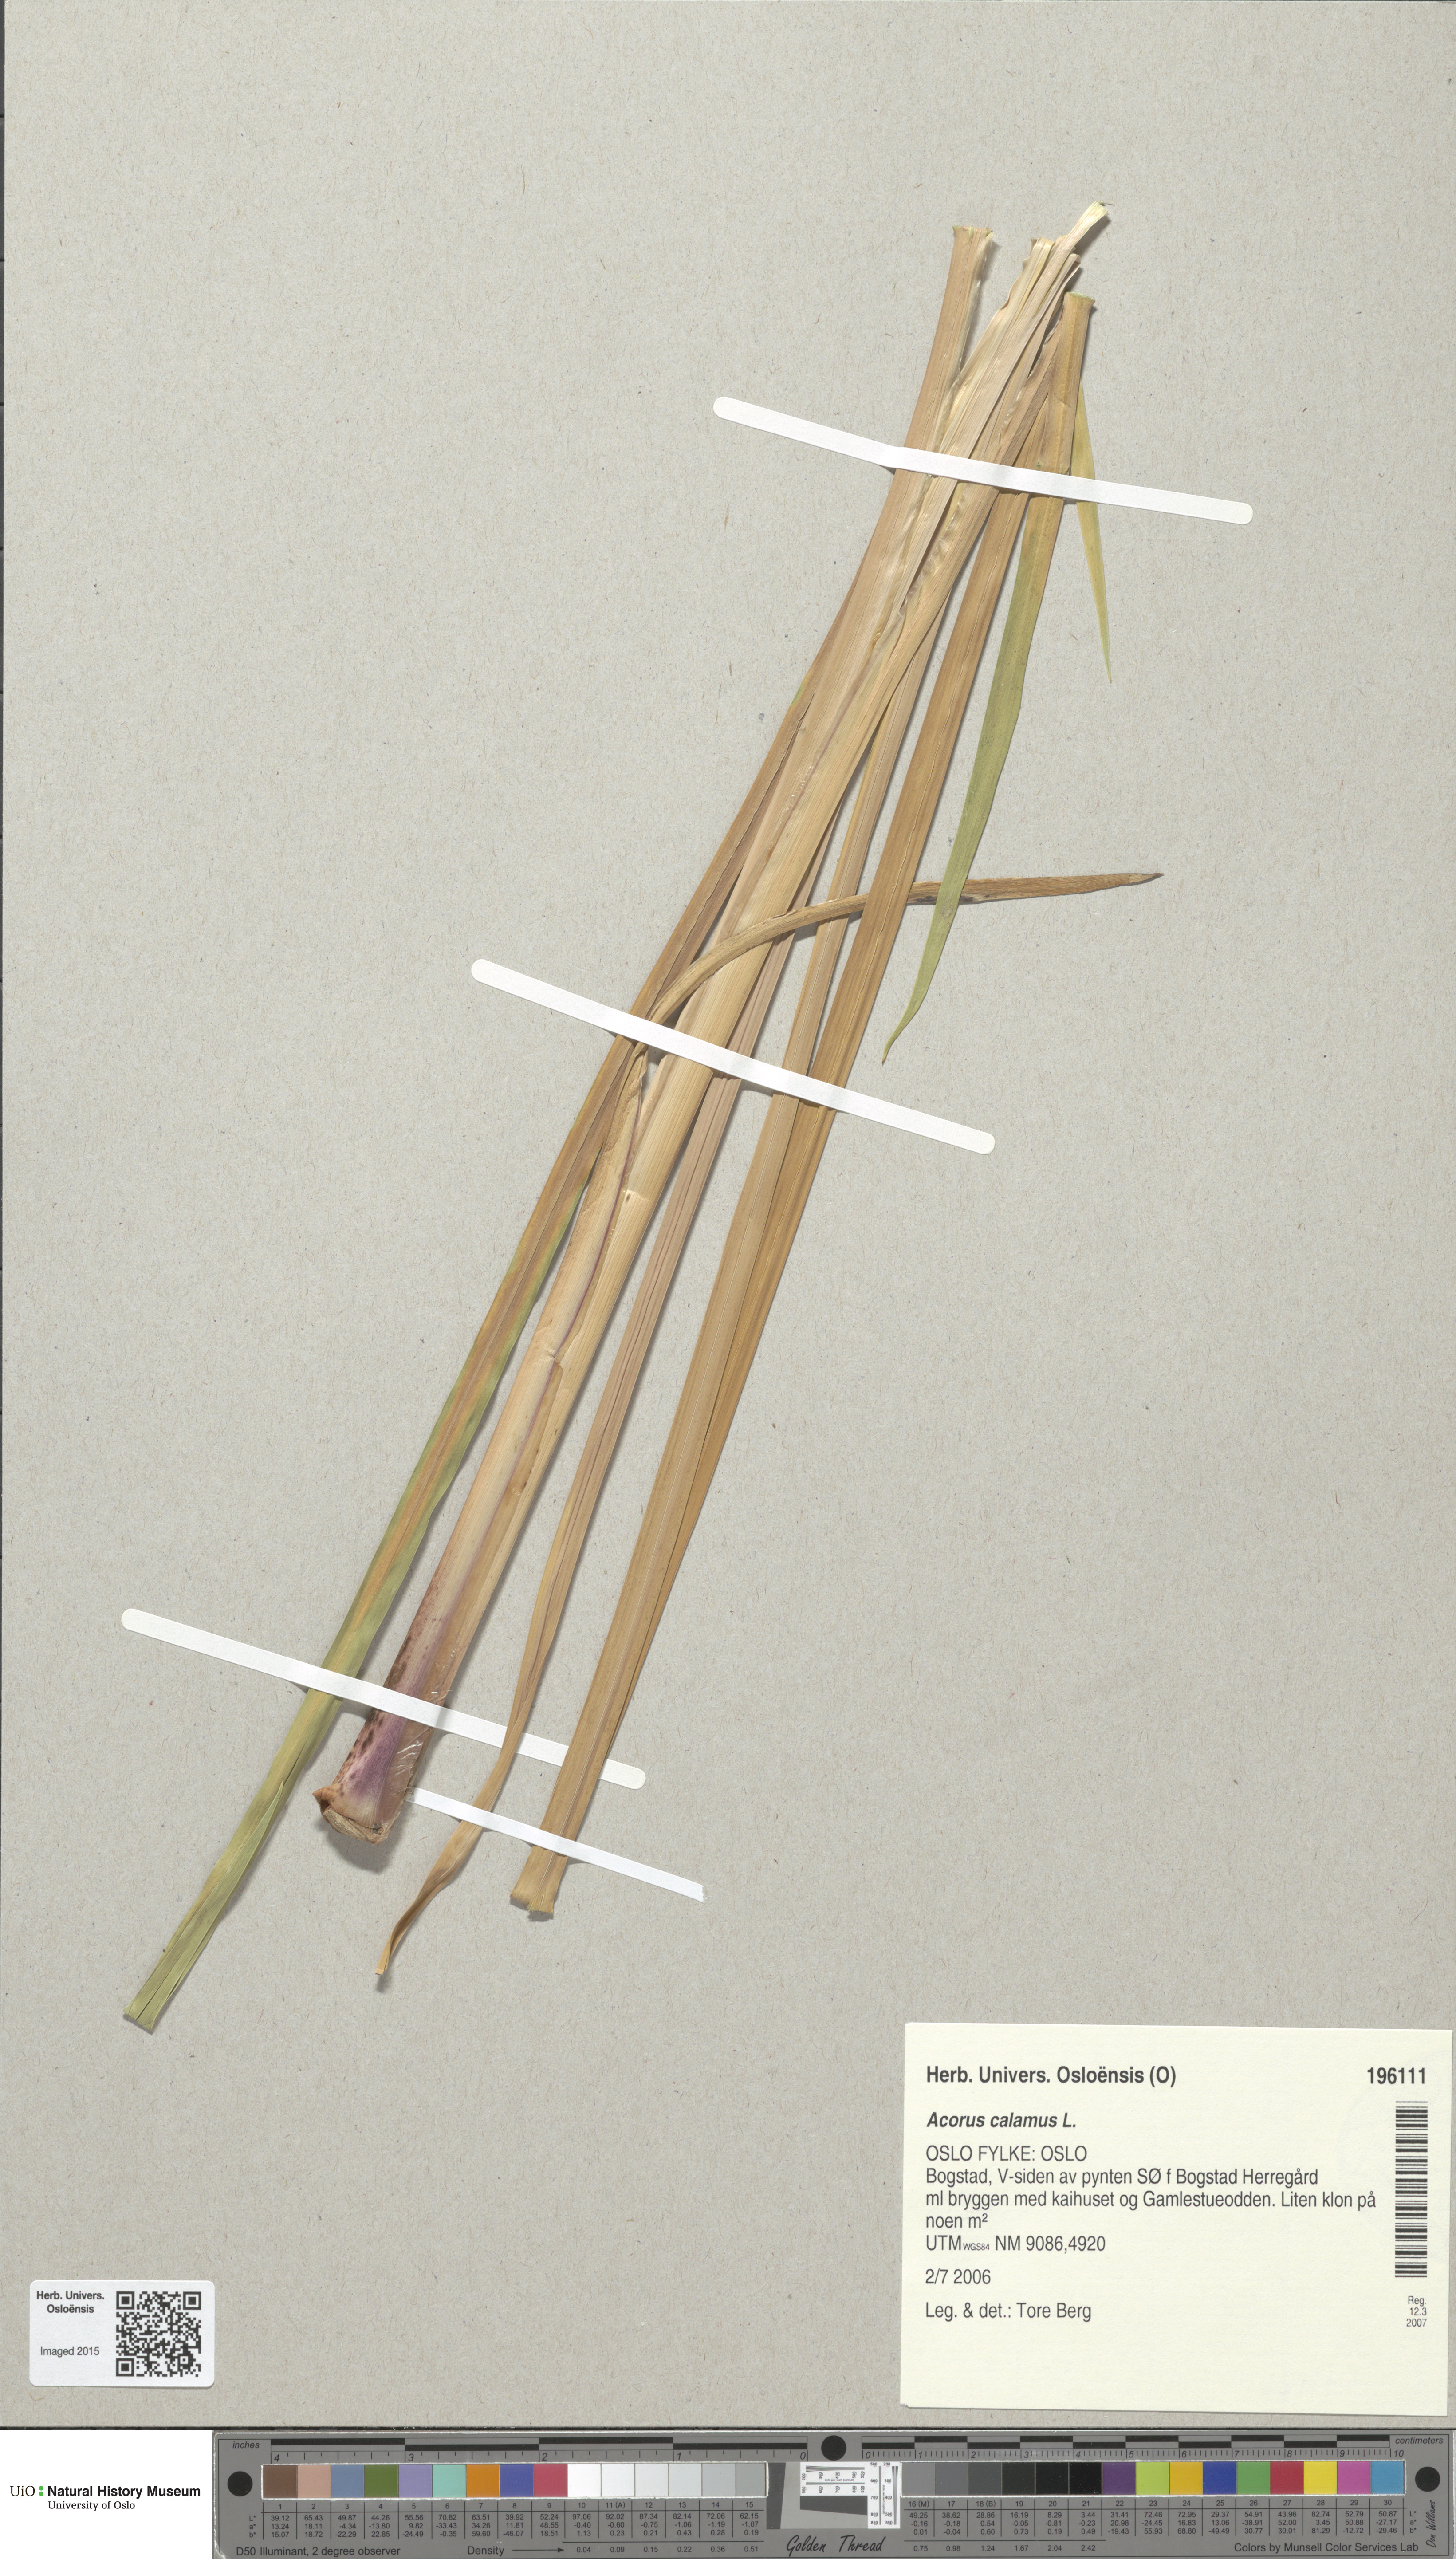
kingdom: Plantae
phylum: Tracheophyta
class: Liliopsida
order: Acorales
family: Acoraceae
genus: Acorus
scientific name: Acorus calamus
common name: Sweet-flag
